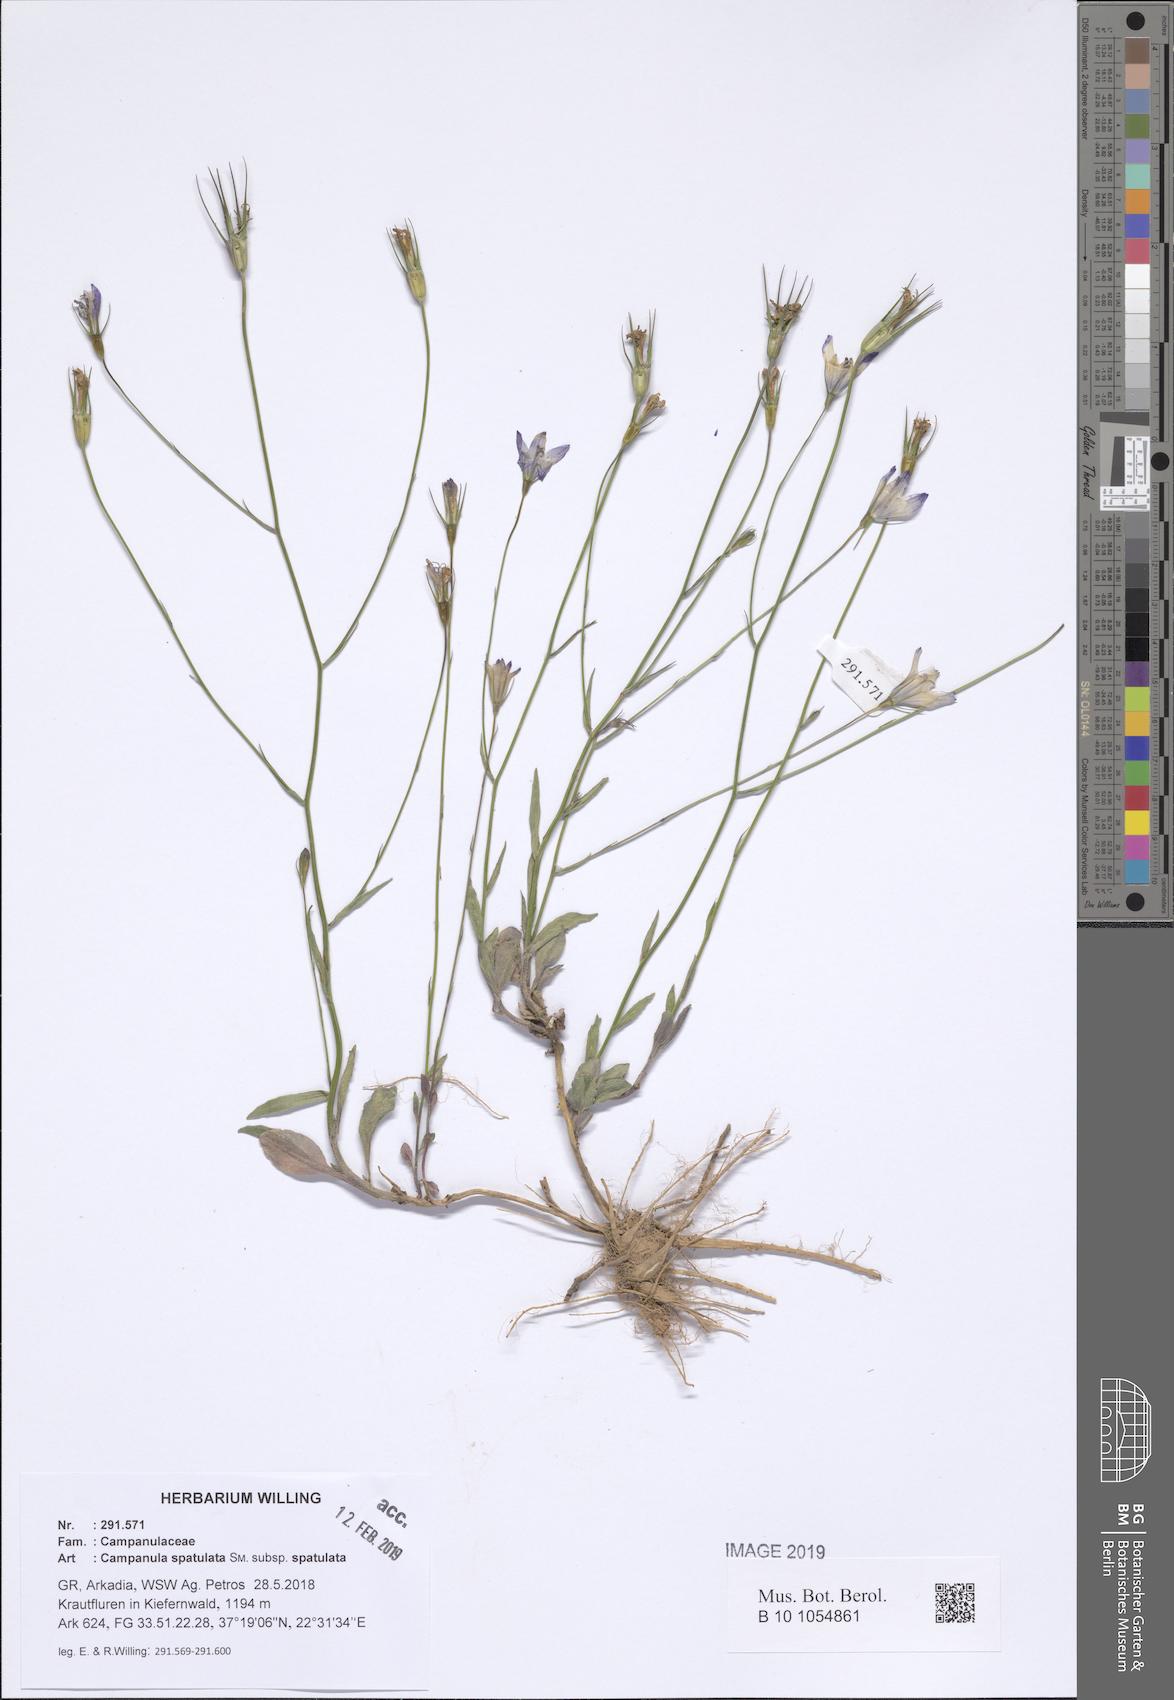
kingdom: Plantae
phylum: Tracheophyta
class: Magnoliopsida
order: Asterales
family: Campanulaceae
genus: Campanula
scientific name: Campanula spatulata
